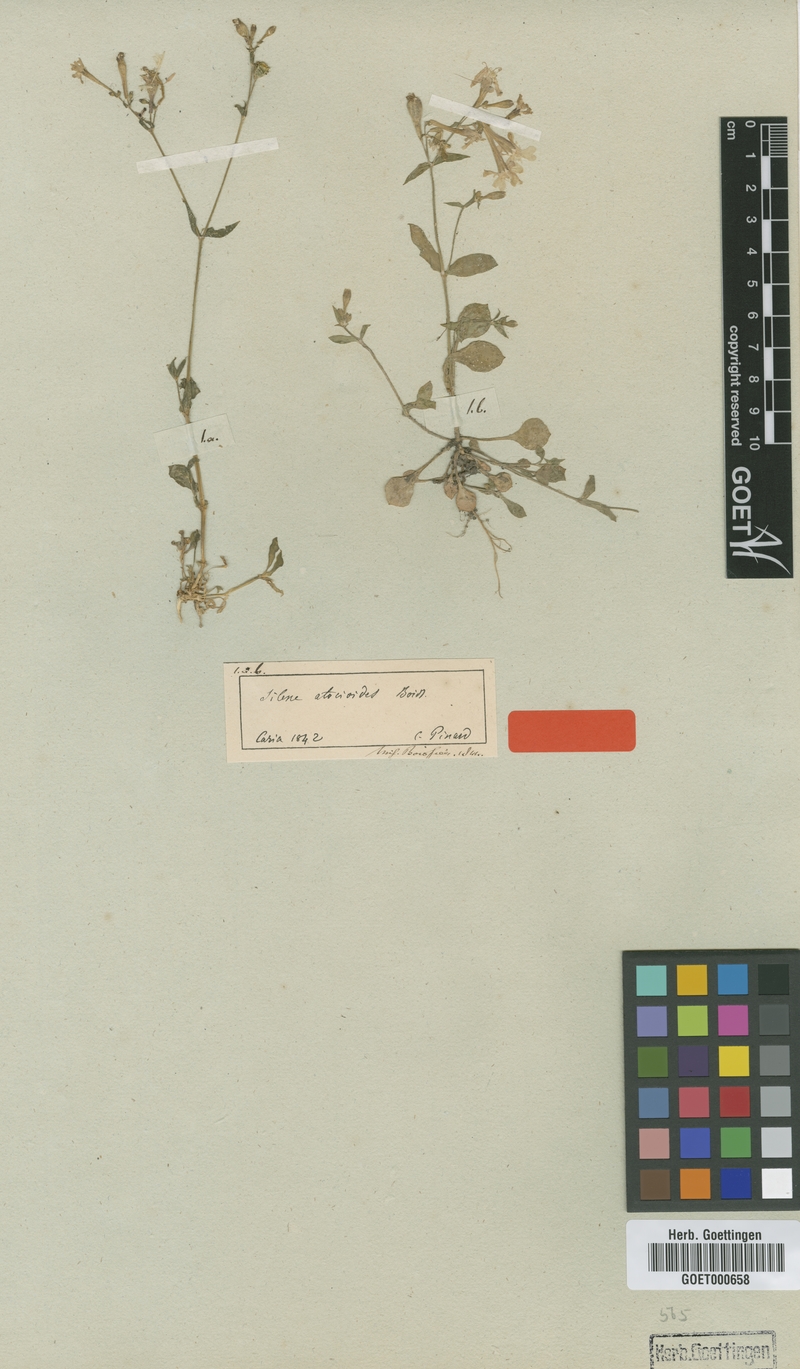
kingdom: Plantae
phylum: Tracheophyta
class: Magnoliopsida
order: Caryophyllales
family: Caryophyllaceae
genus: Silene
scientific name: Silene aegyptiaca
